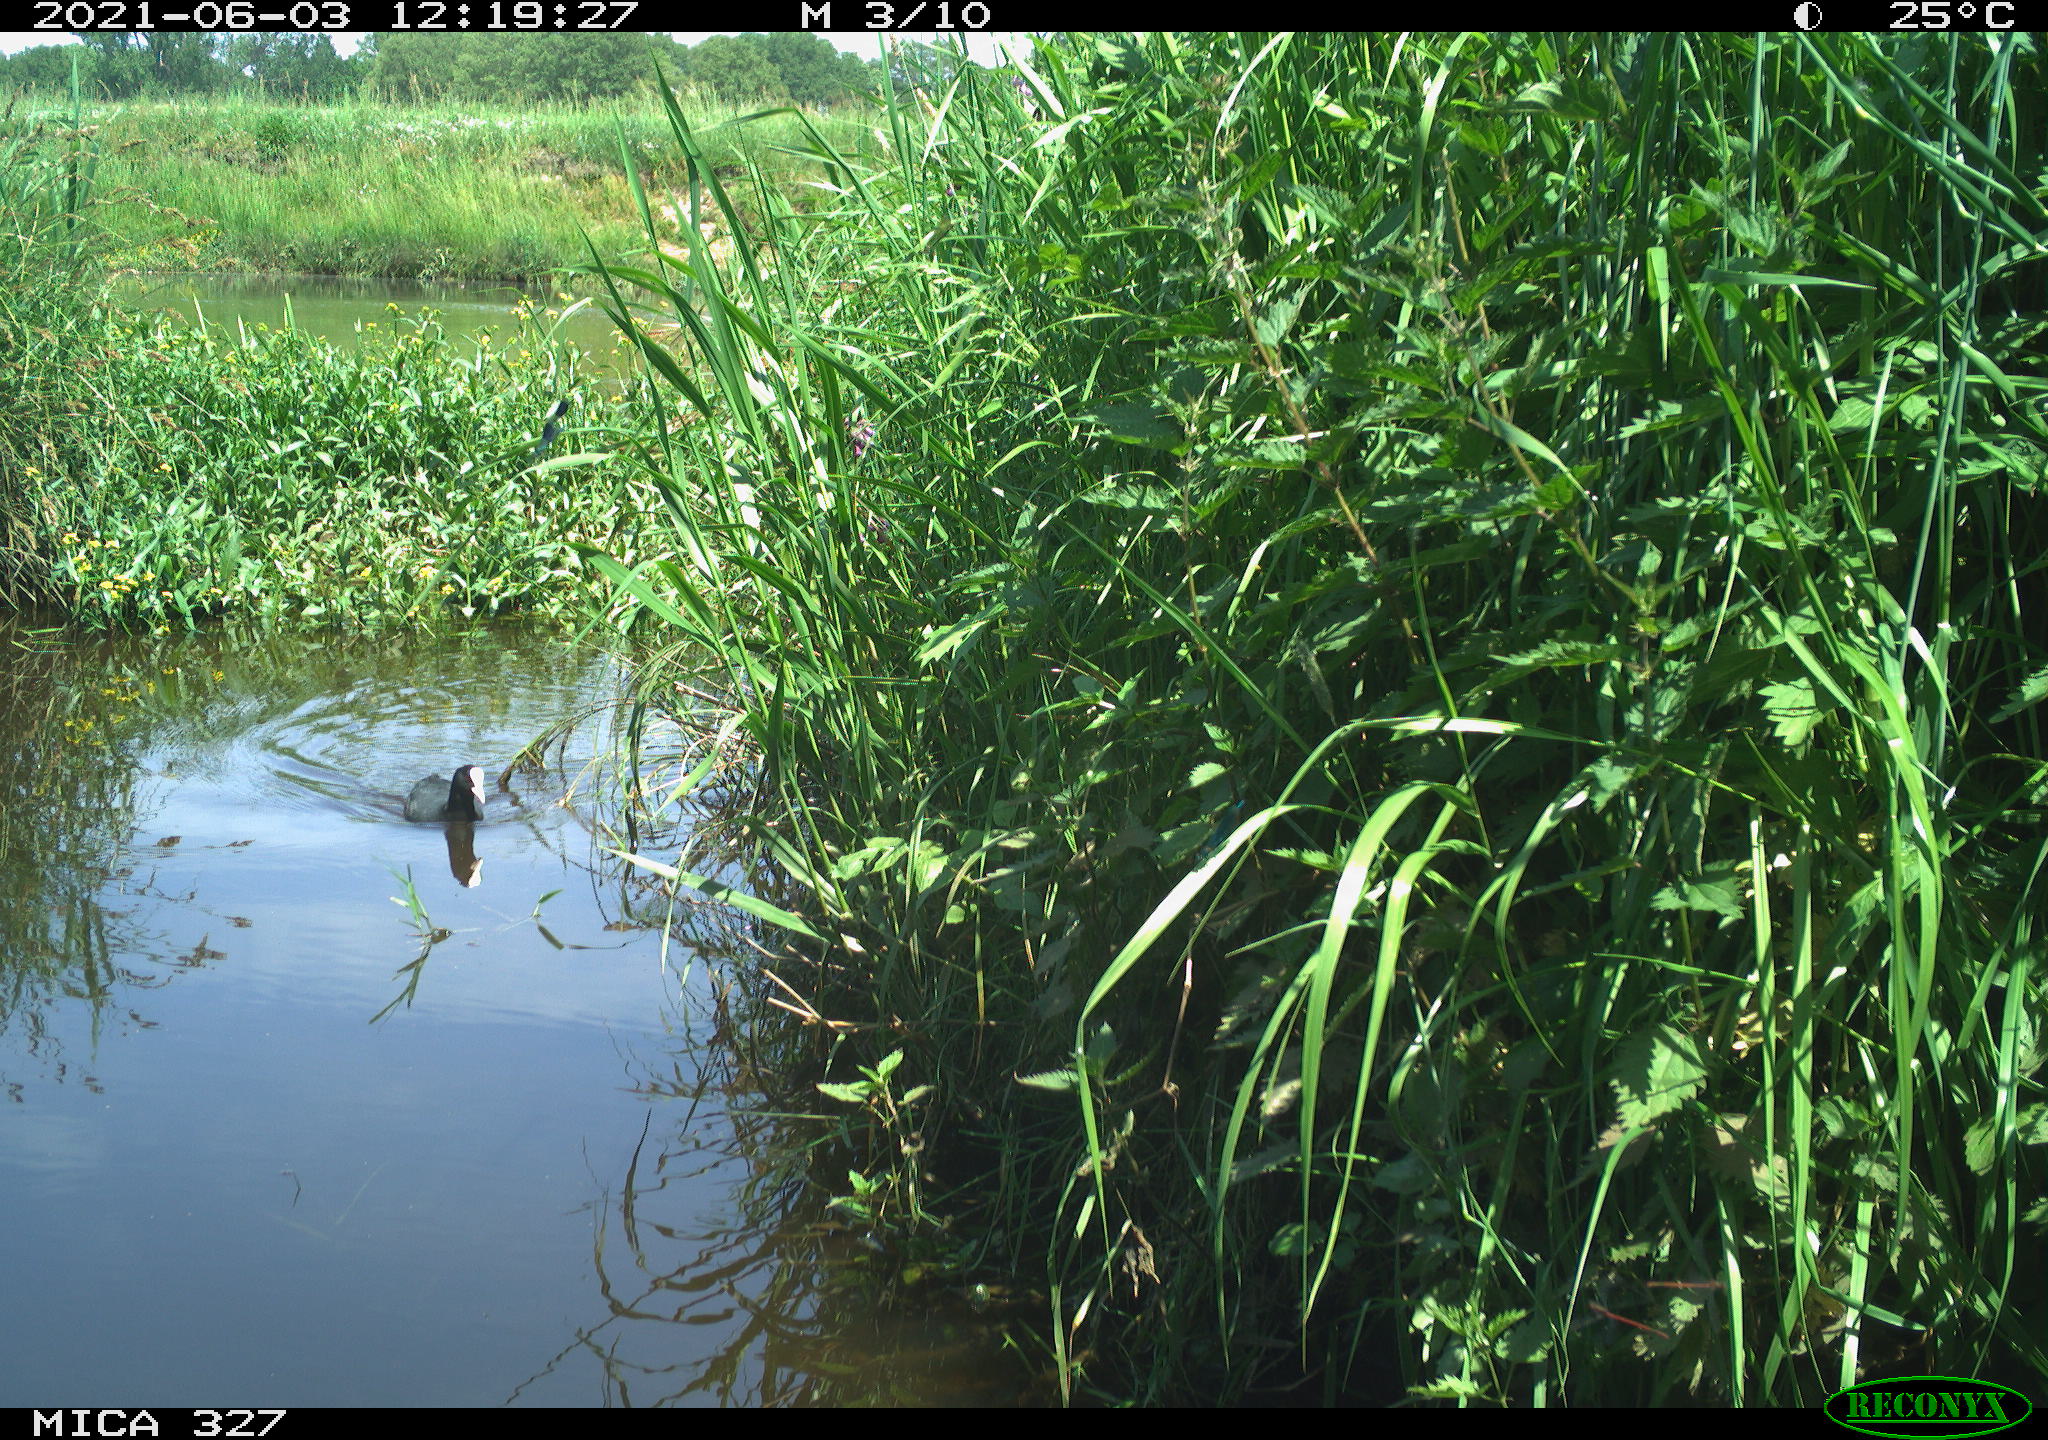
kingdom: Animalia
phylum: Chordata
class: Aves
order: Gruiformes
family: Rallidae
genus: Fulica
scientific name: Fulica atra
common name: Eurasian coot
